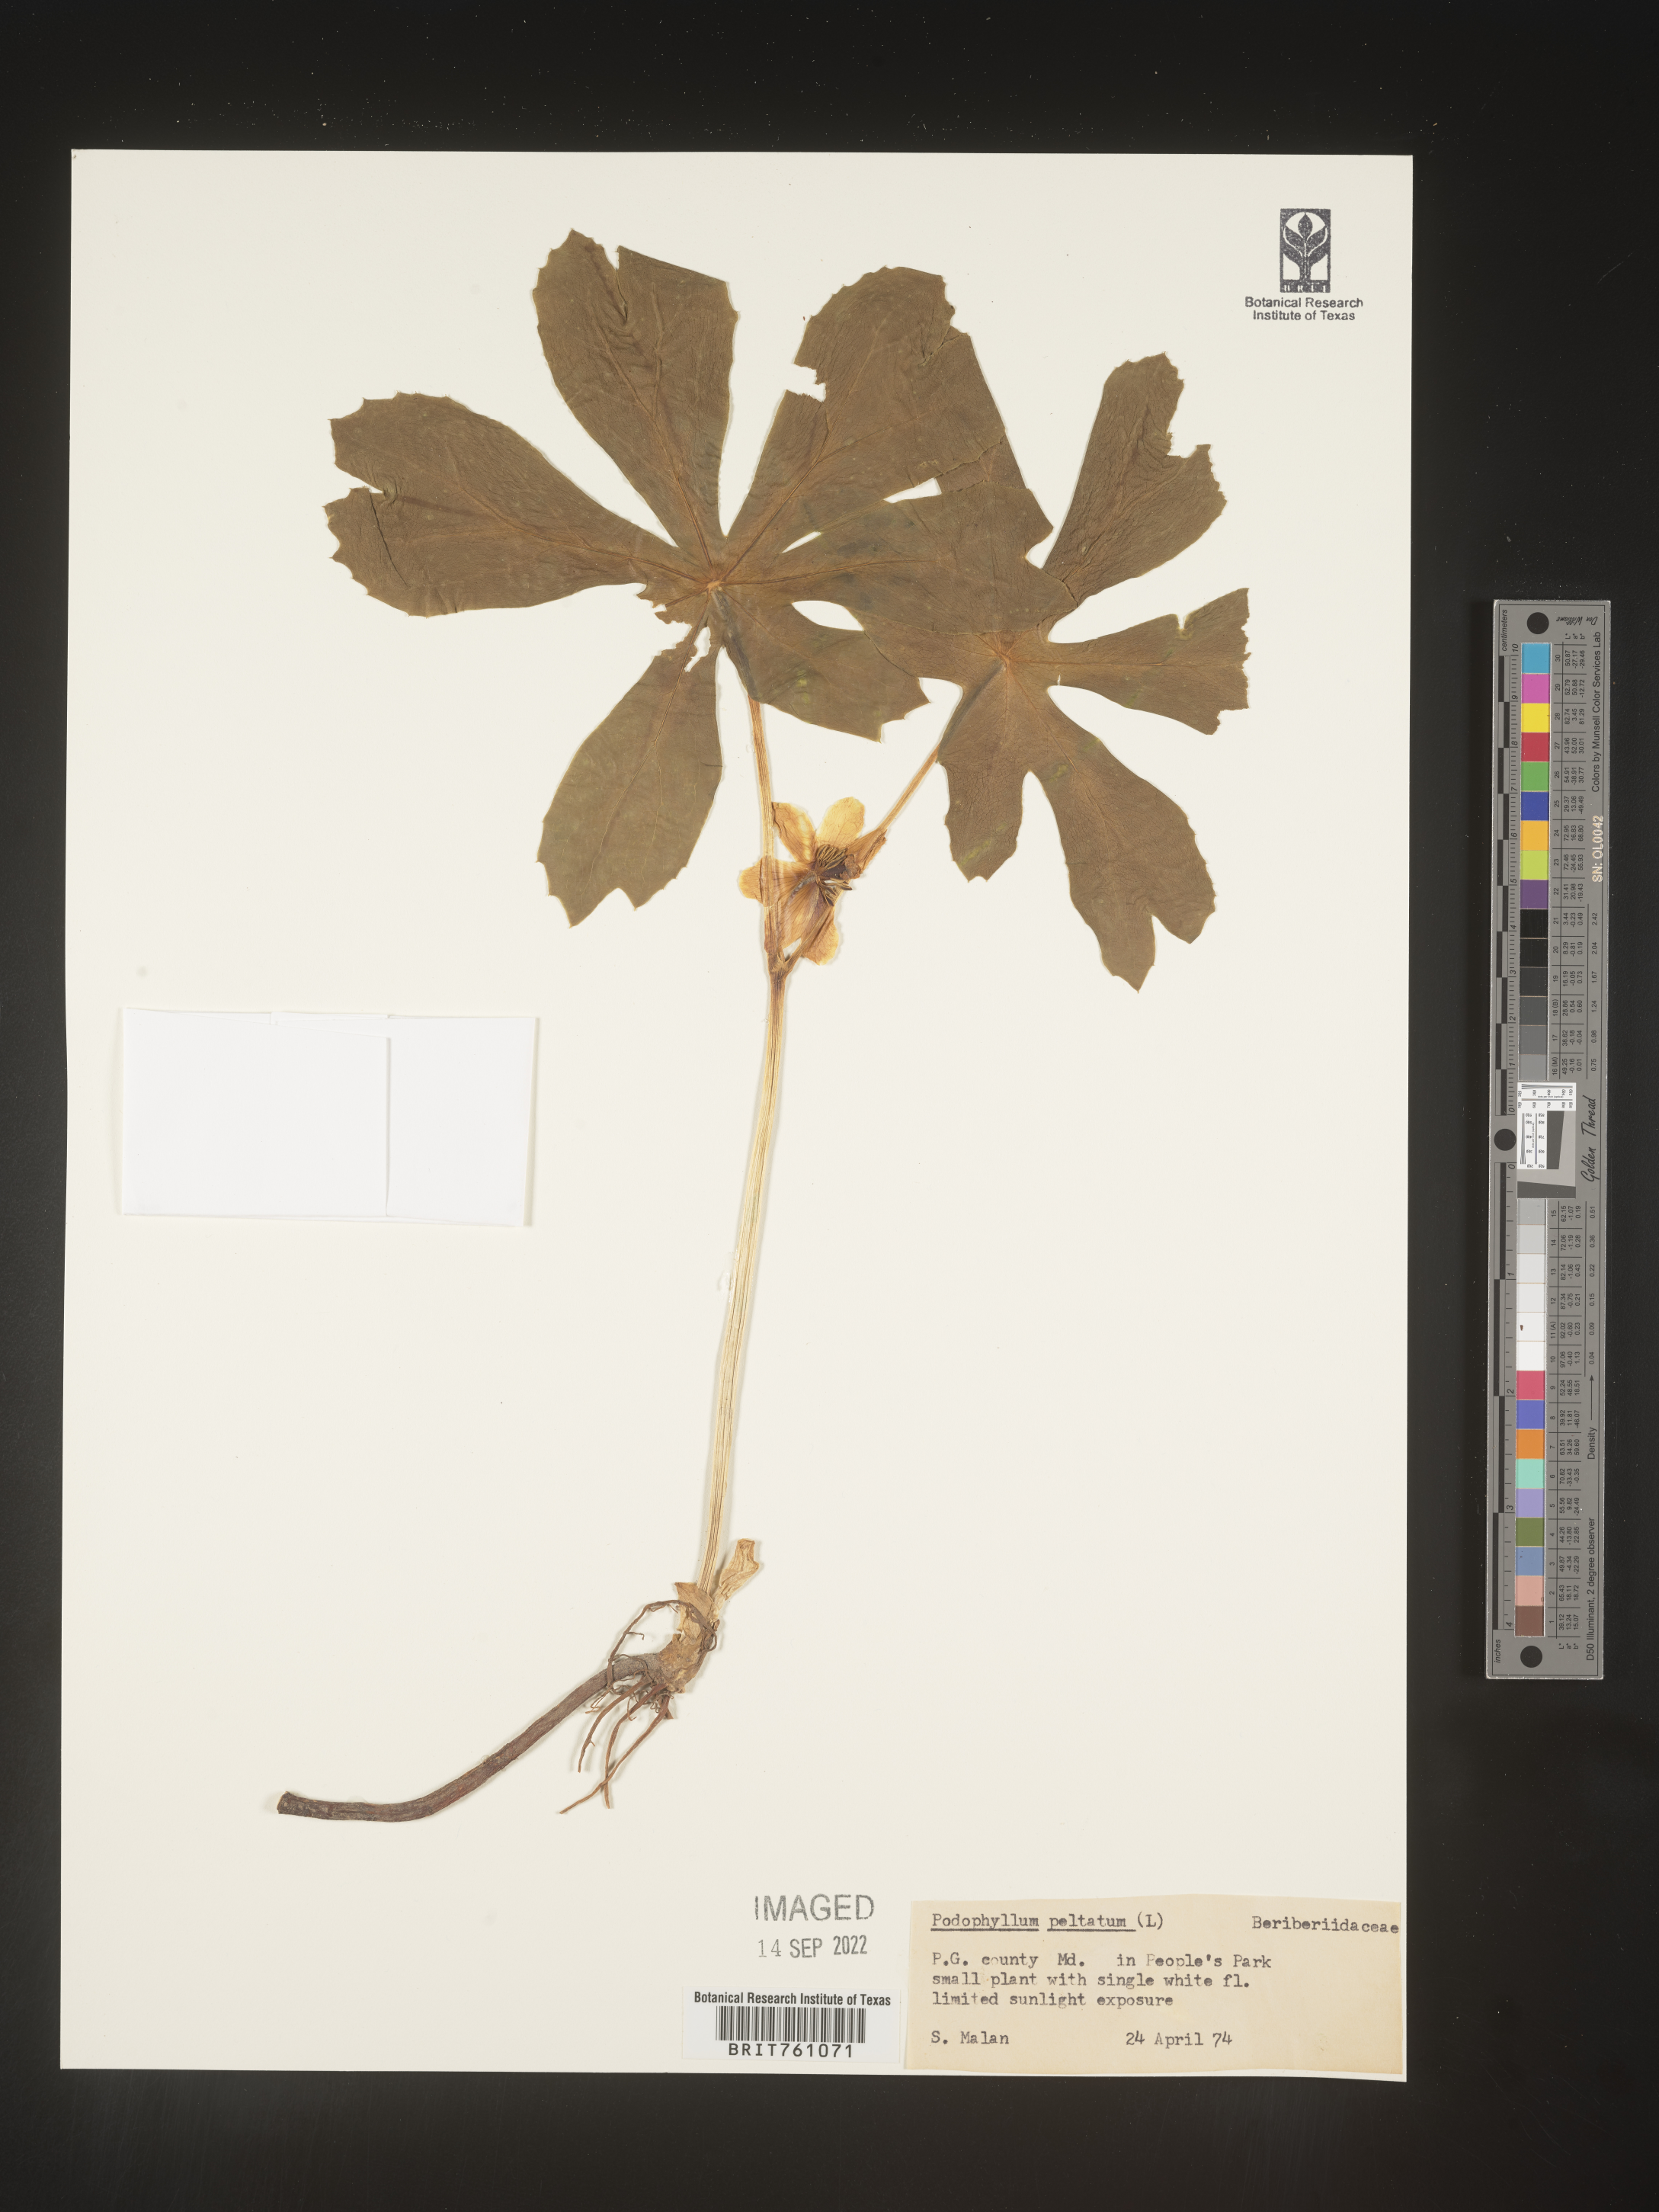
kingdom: Plantae
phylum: Tracheophyta
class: Magnoliopsida
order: Ranunculales
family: Berberidaceae
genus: Podophyllum
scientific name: Podophyllum peltatum
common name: Wild mandrake
